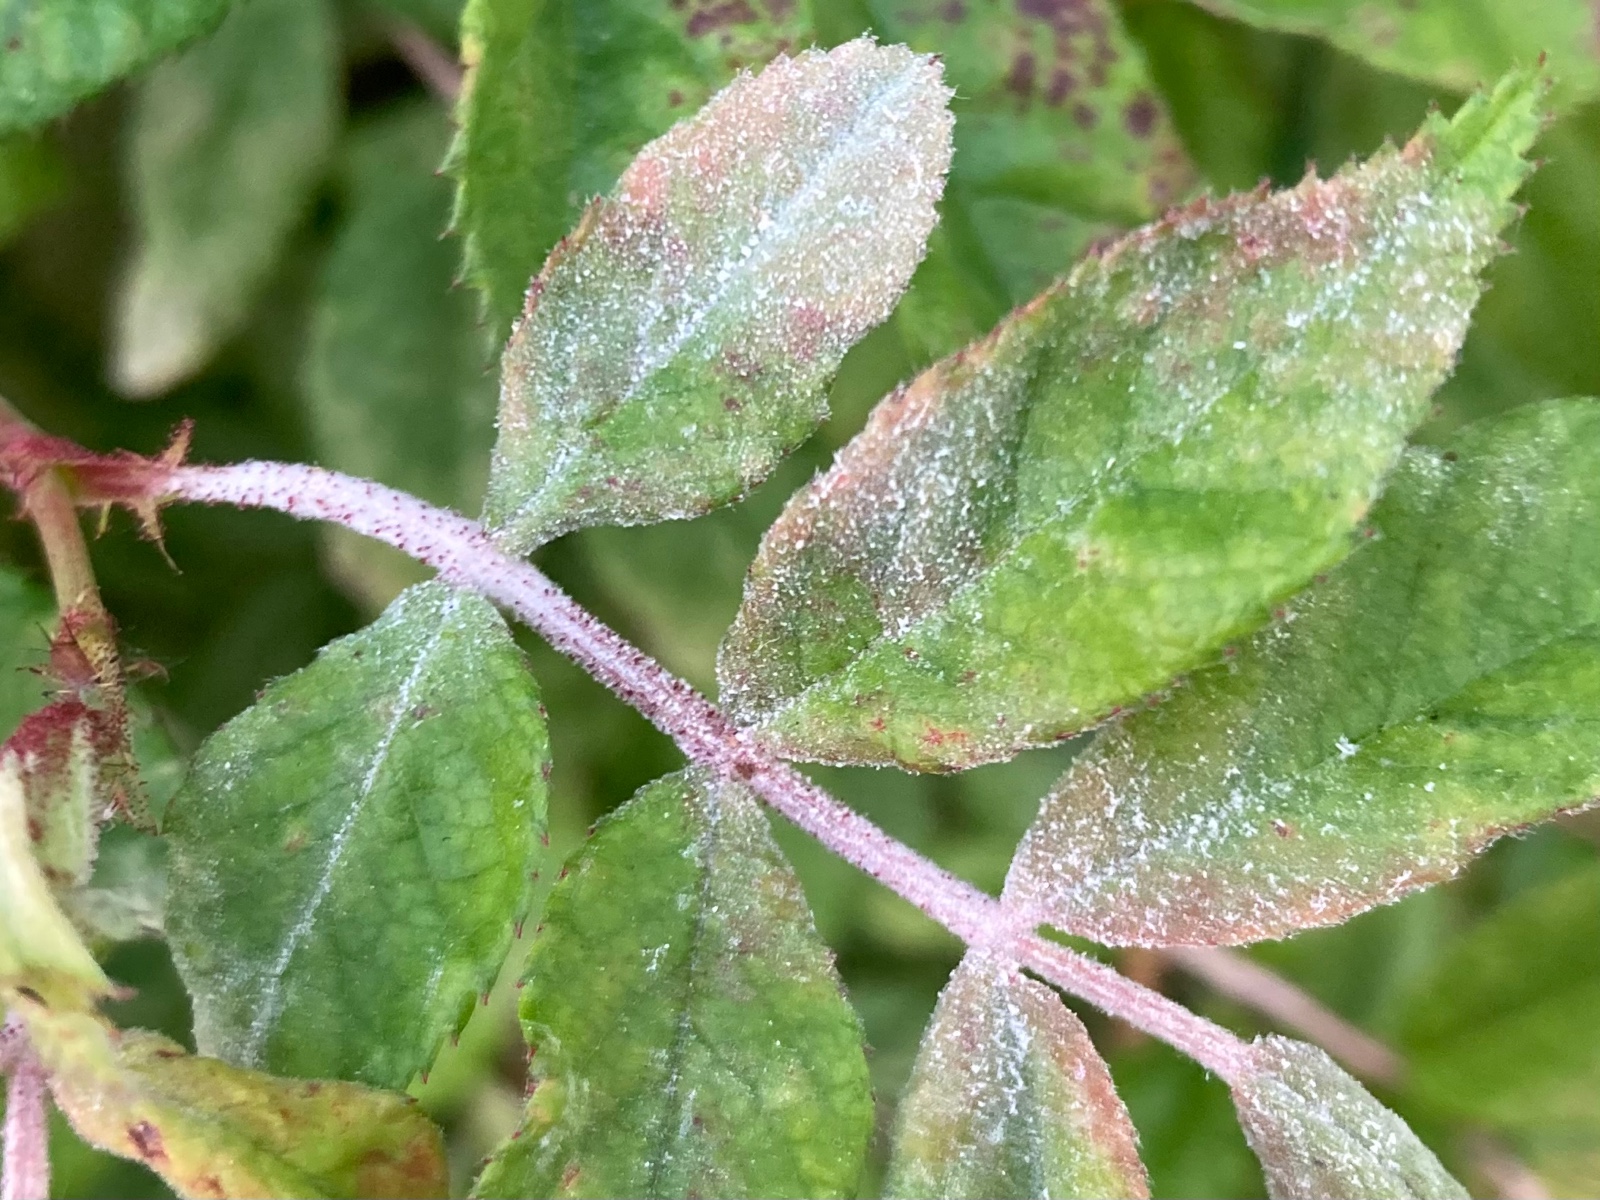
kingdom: Fungi
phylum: Ascomycota
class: Leotiomycetes
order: Helotiales
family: Erysiphaceae
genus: Podosphaera
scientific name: Podosphaera pannosa
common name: Rose mildew
